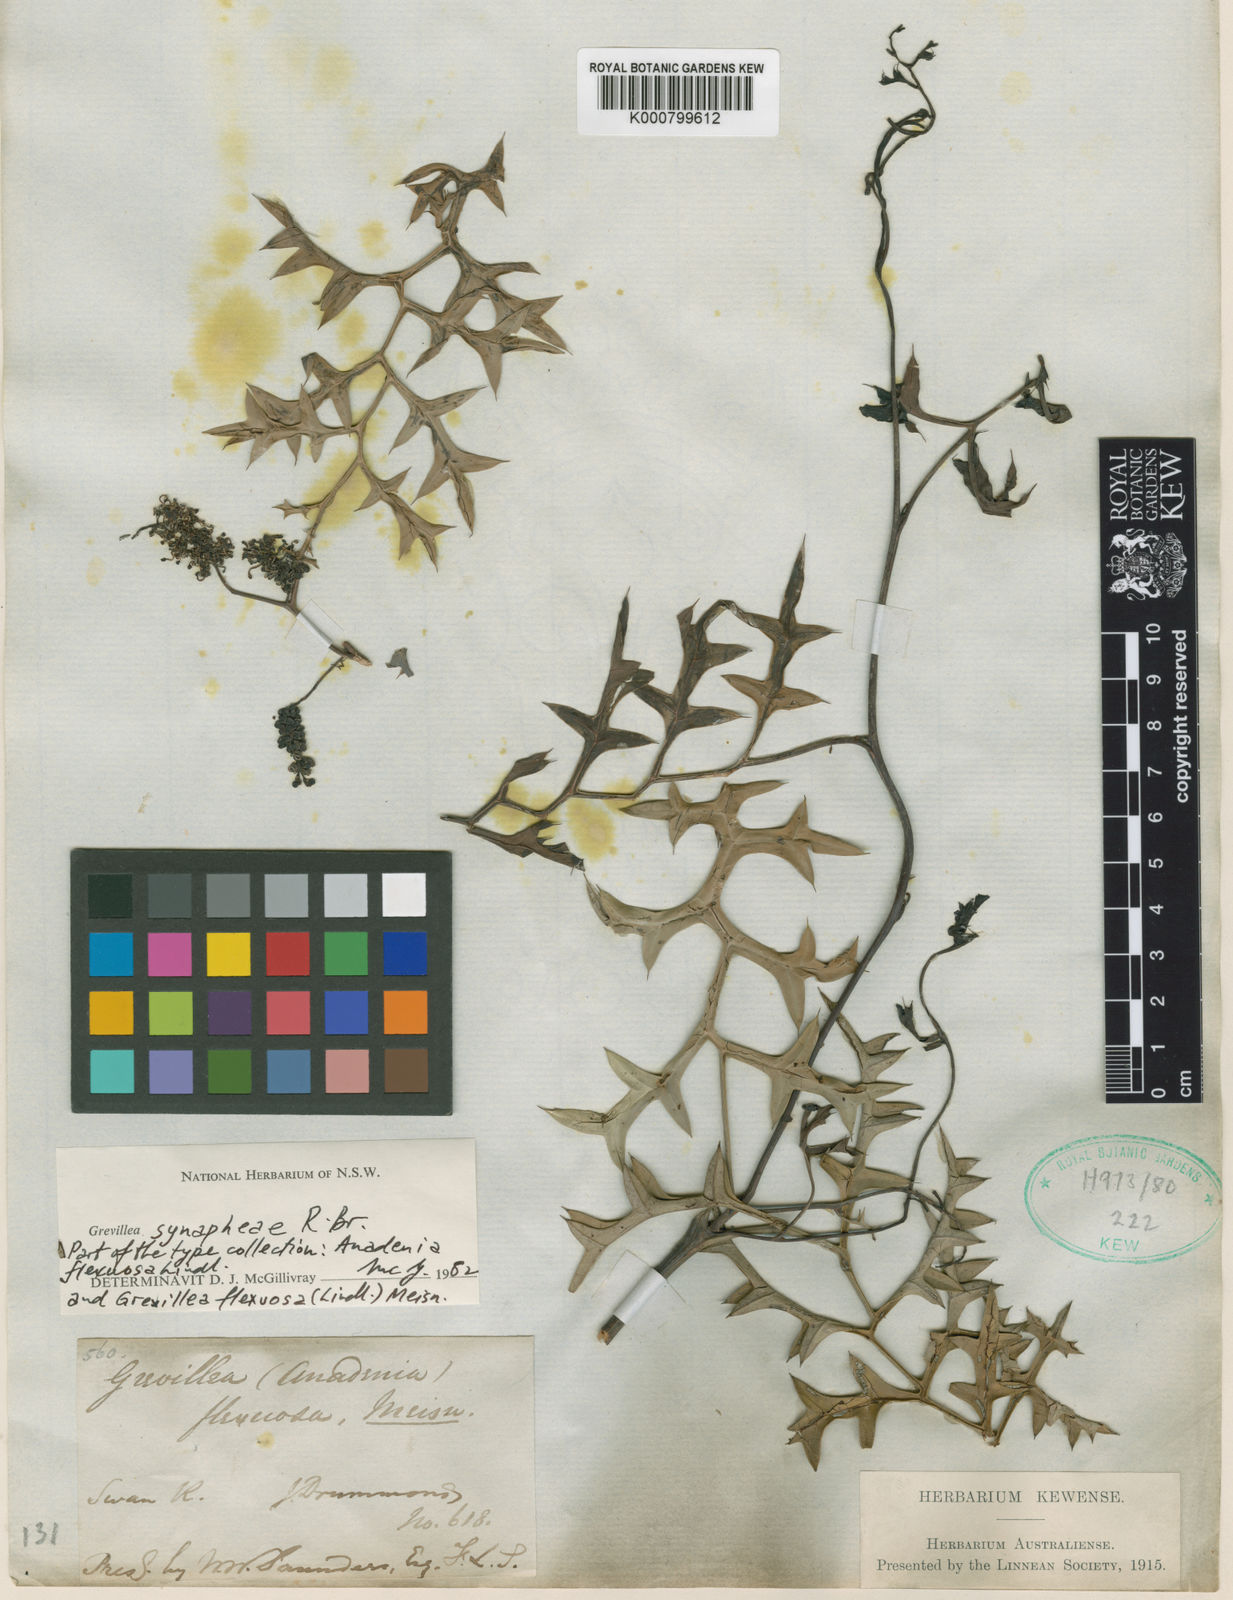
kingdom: Plantae
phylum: Tracheophyta
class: Magnoliopsida
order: Proteales
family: Proteaceae
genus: Grevillea
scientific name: Grevillea synaphea
